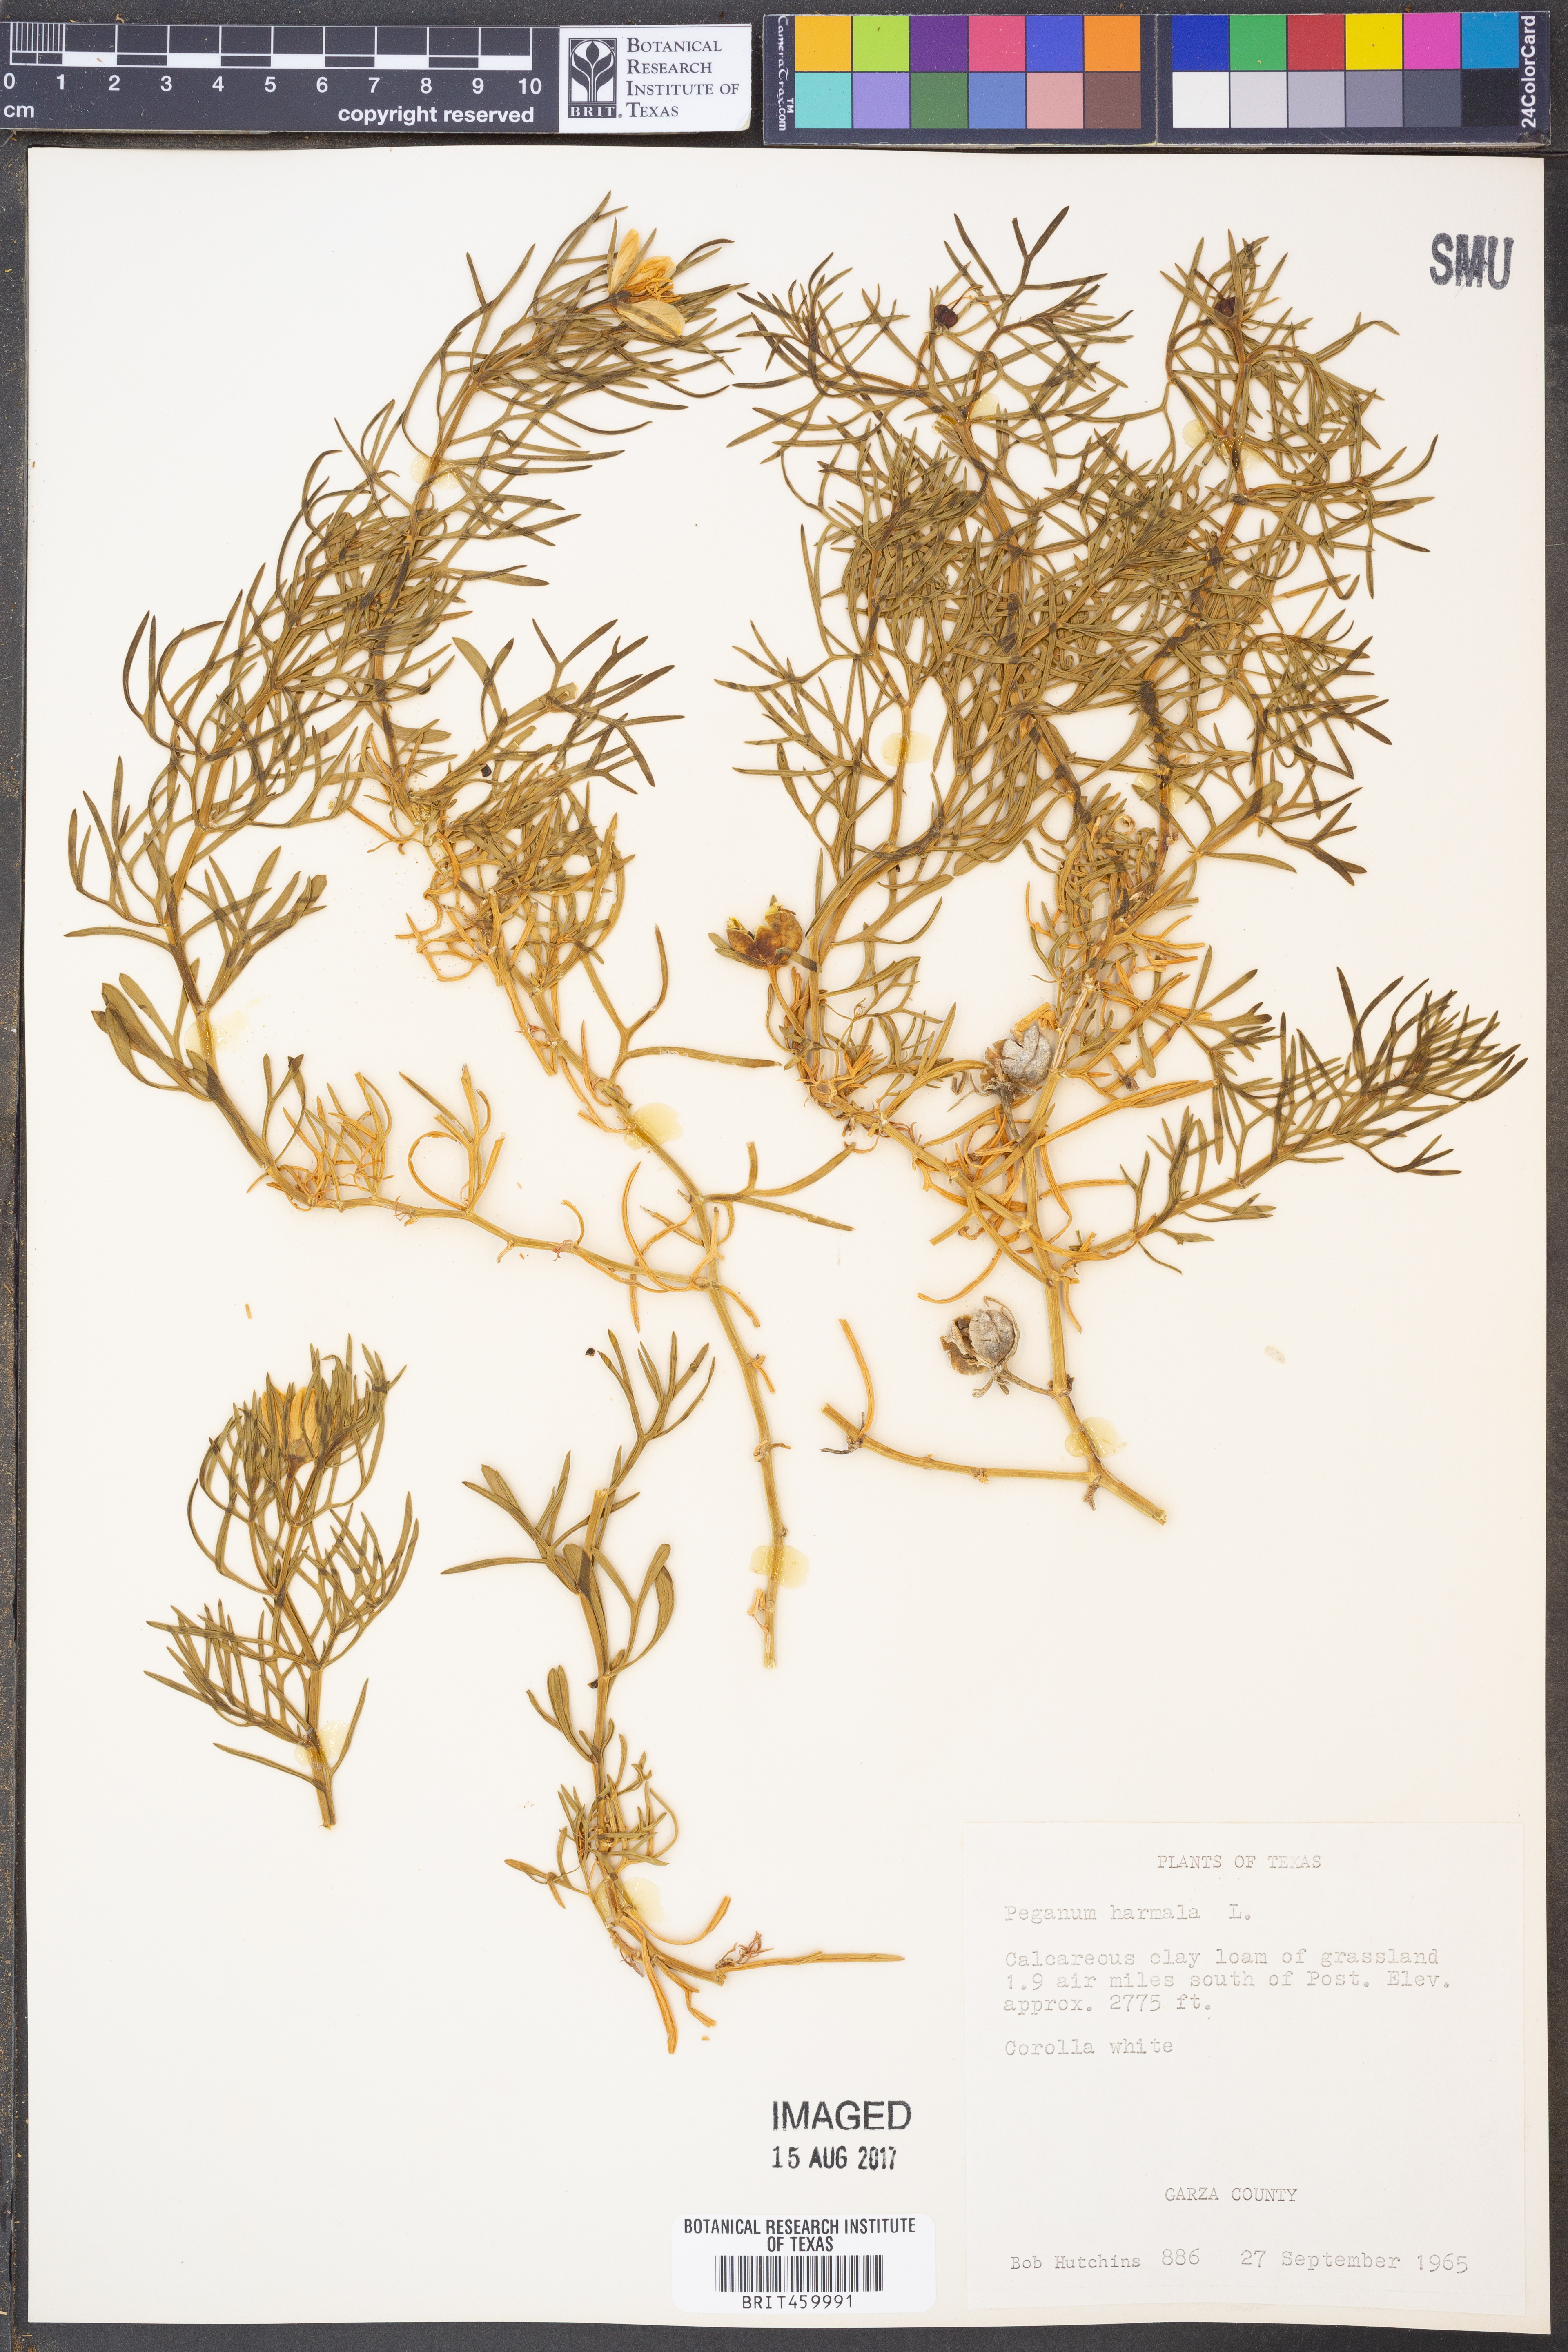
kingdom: Plantae
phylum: Tracheophyta
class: Magnoliopsida
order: Sapindales
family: Tetradiclidaceae
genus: Peganum
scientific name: Peganum harmala
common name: Harmal peganum
